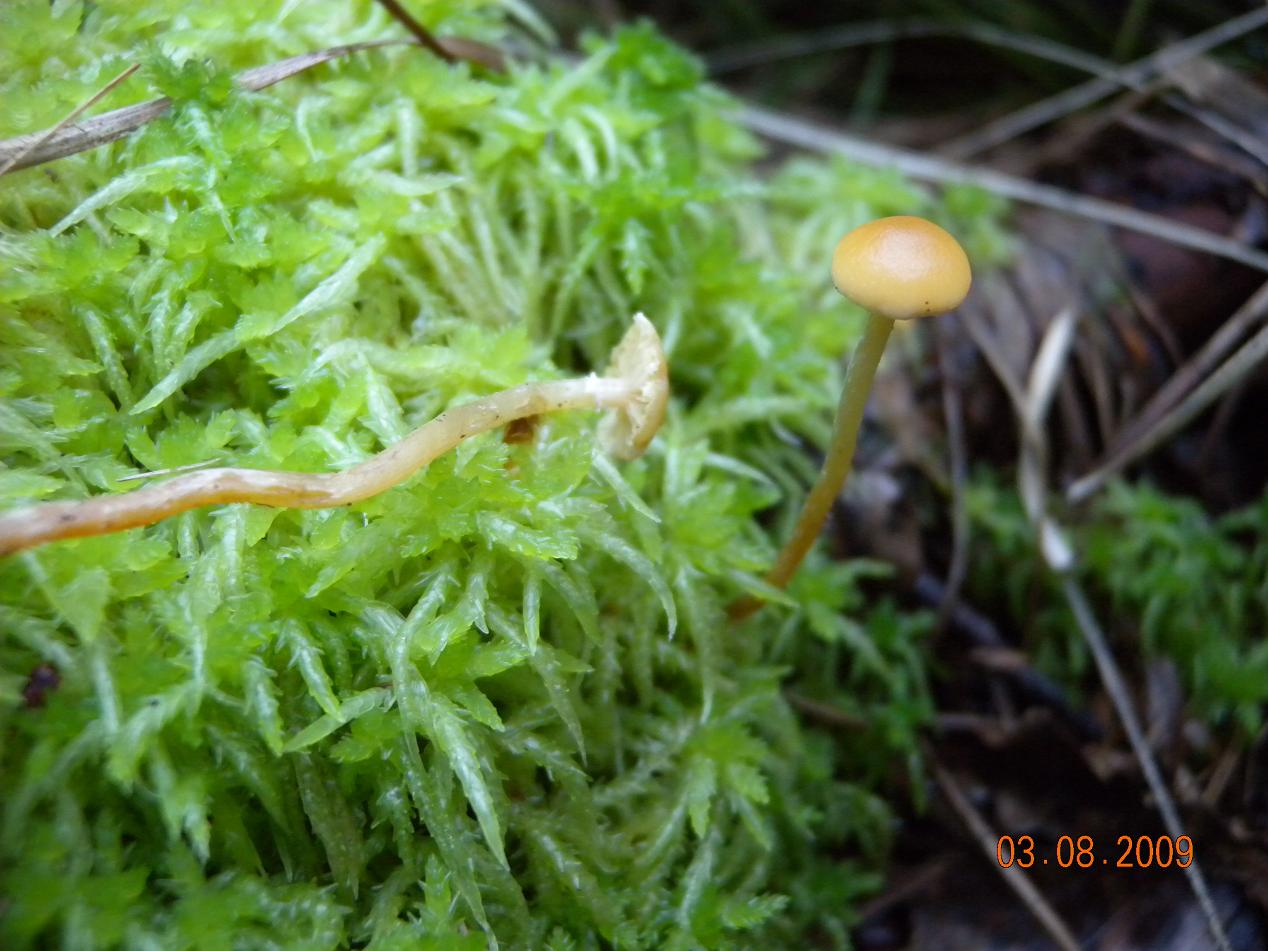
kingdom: Fungi
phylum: Basidiomycota
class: Agaricomycetes
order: Agaricales
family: Strophariaceae
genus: Hypholoma
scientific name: Hypholoma elongatum
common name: slank svovlhat
